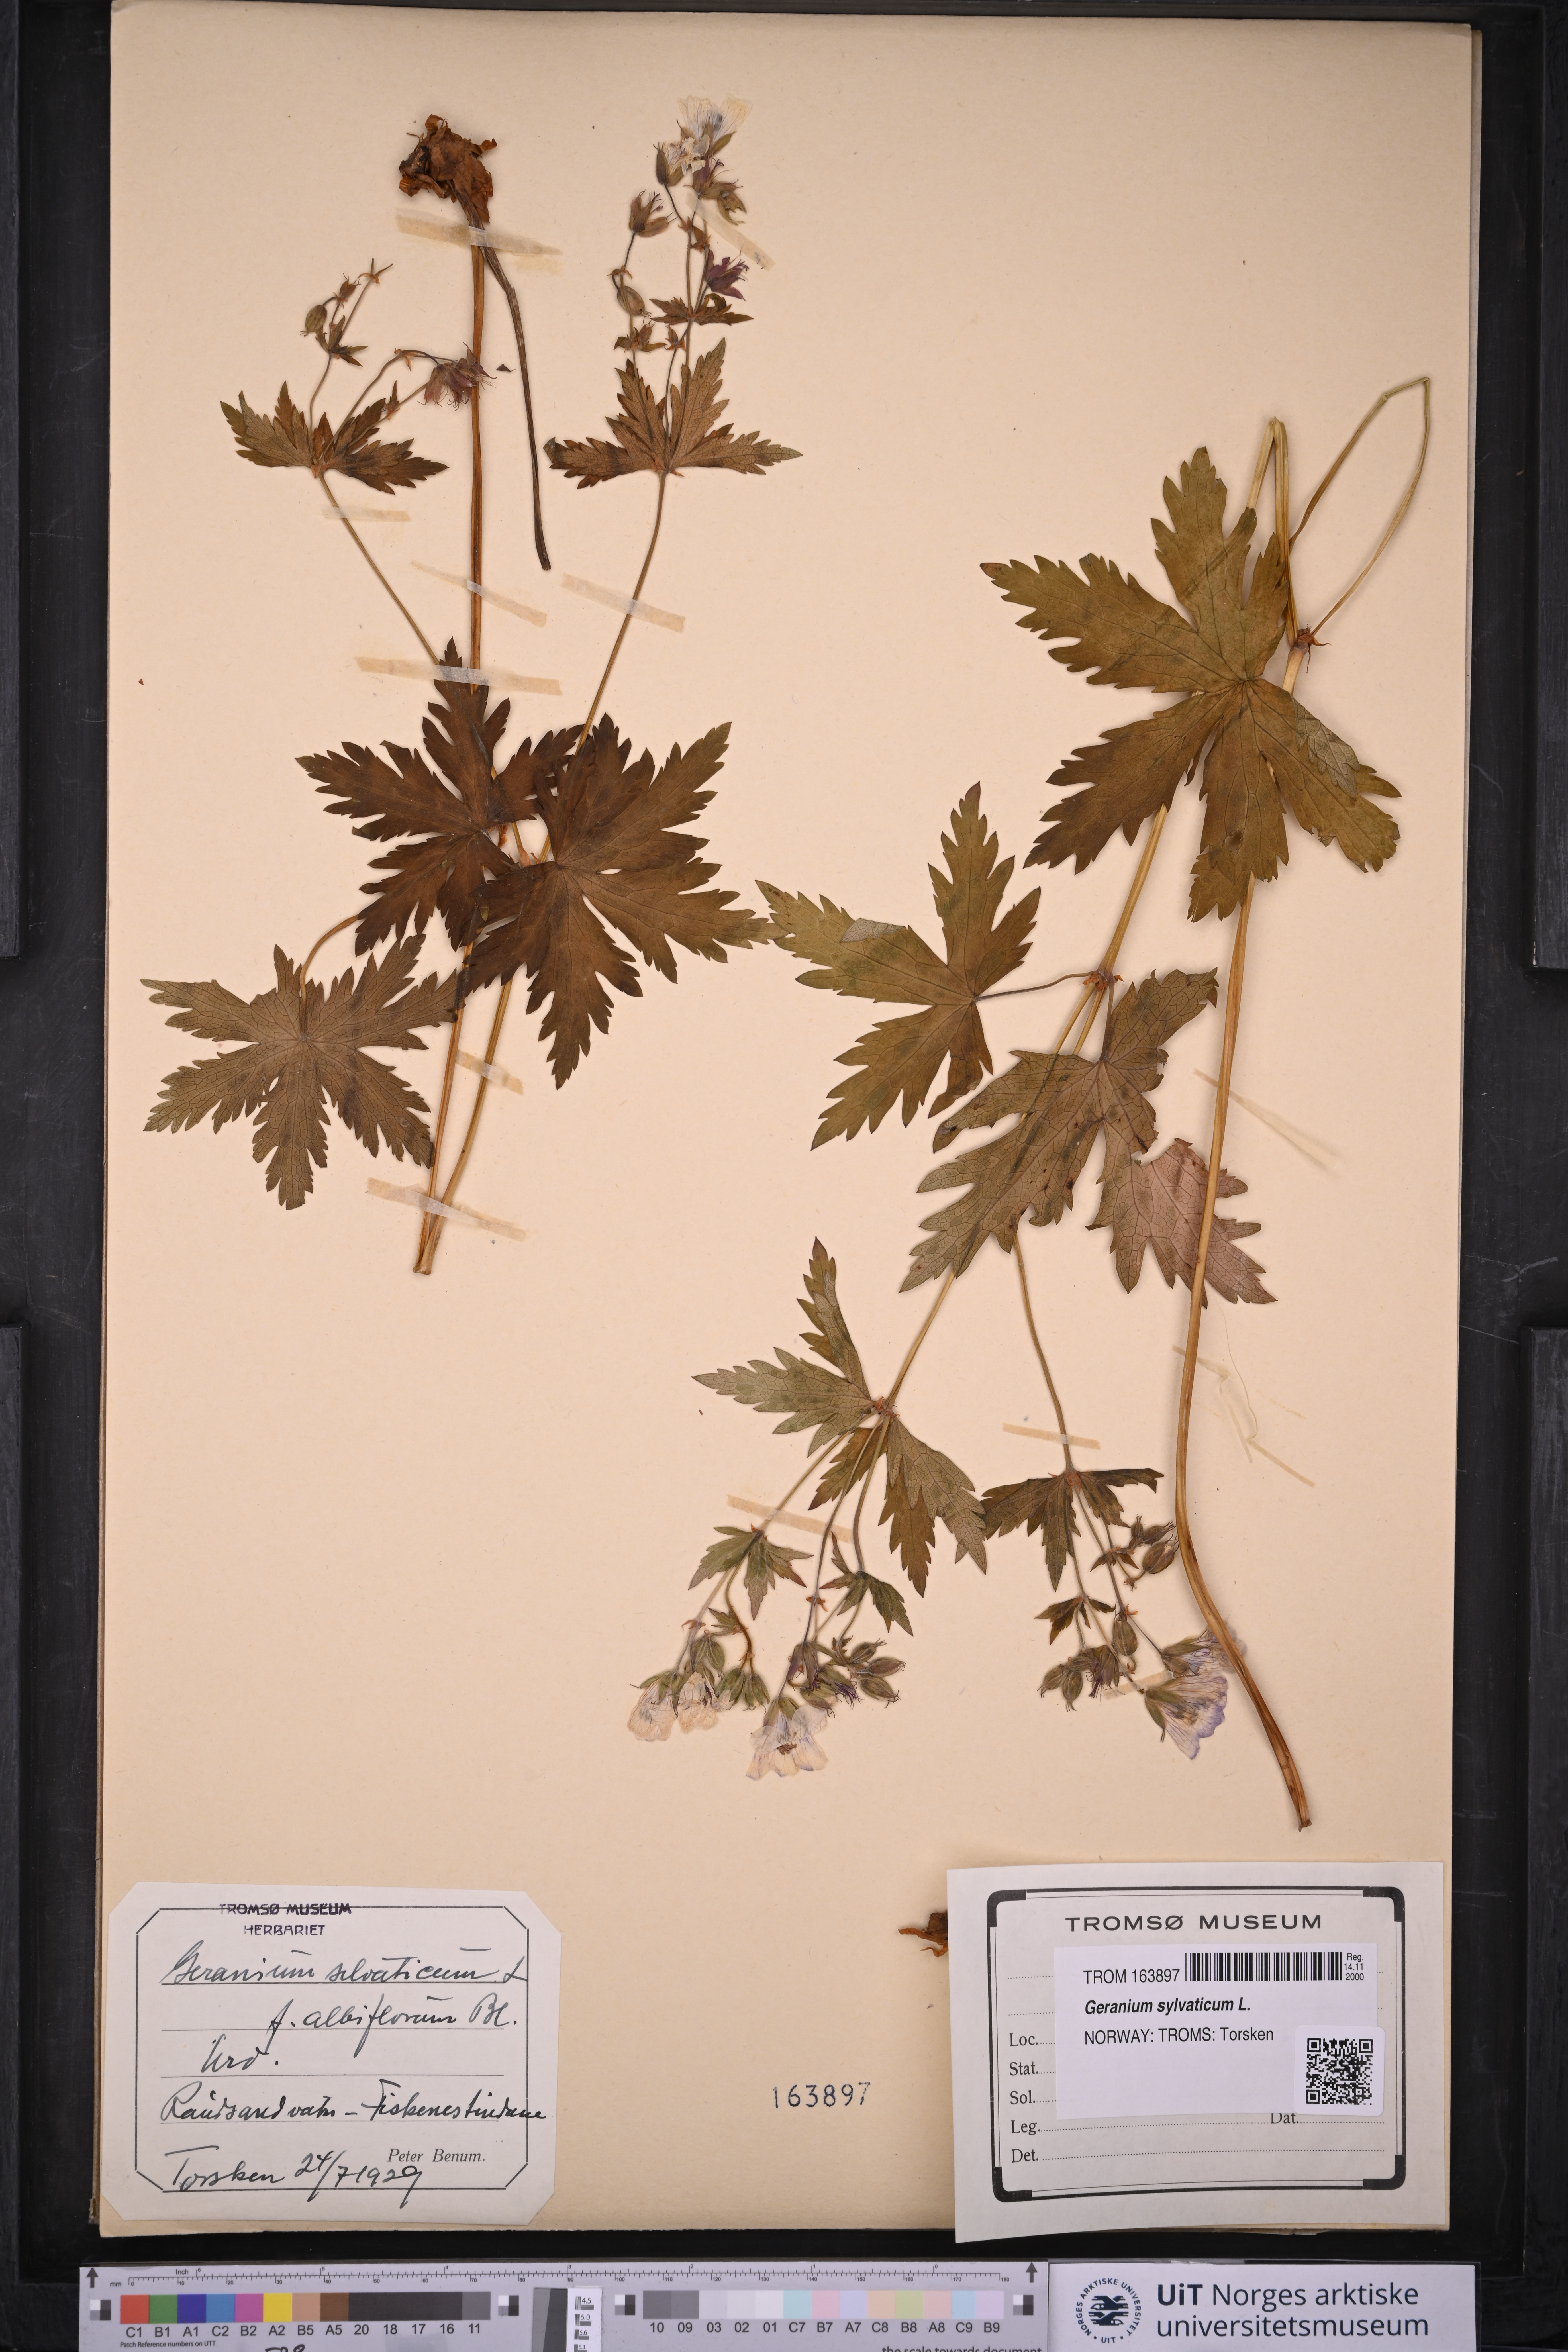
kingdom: Plantae
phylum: Tracheophyta
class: Magnoliopsida
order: Geraniales
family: Geraniaceae
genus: Geranium
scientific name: Geranium sylvaticum
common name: Wood crane's-bill
